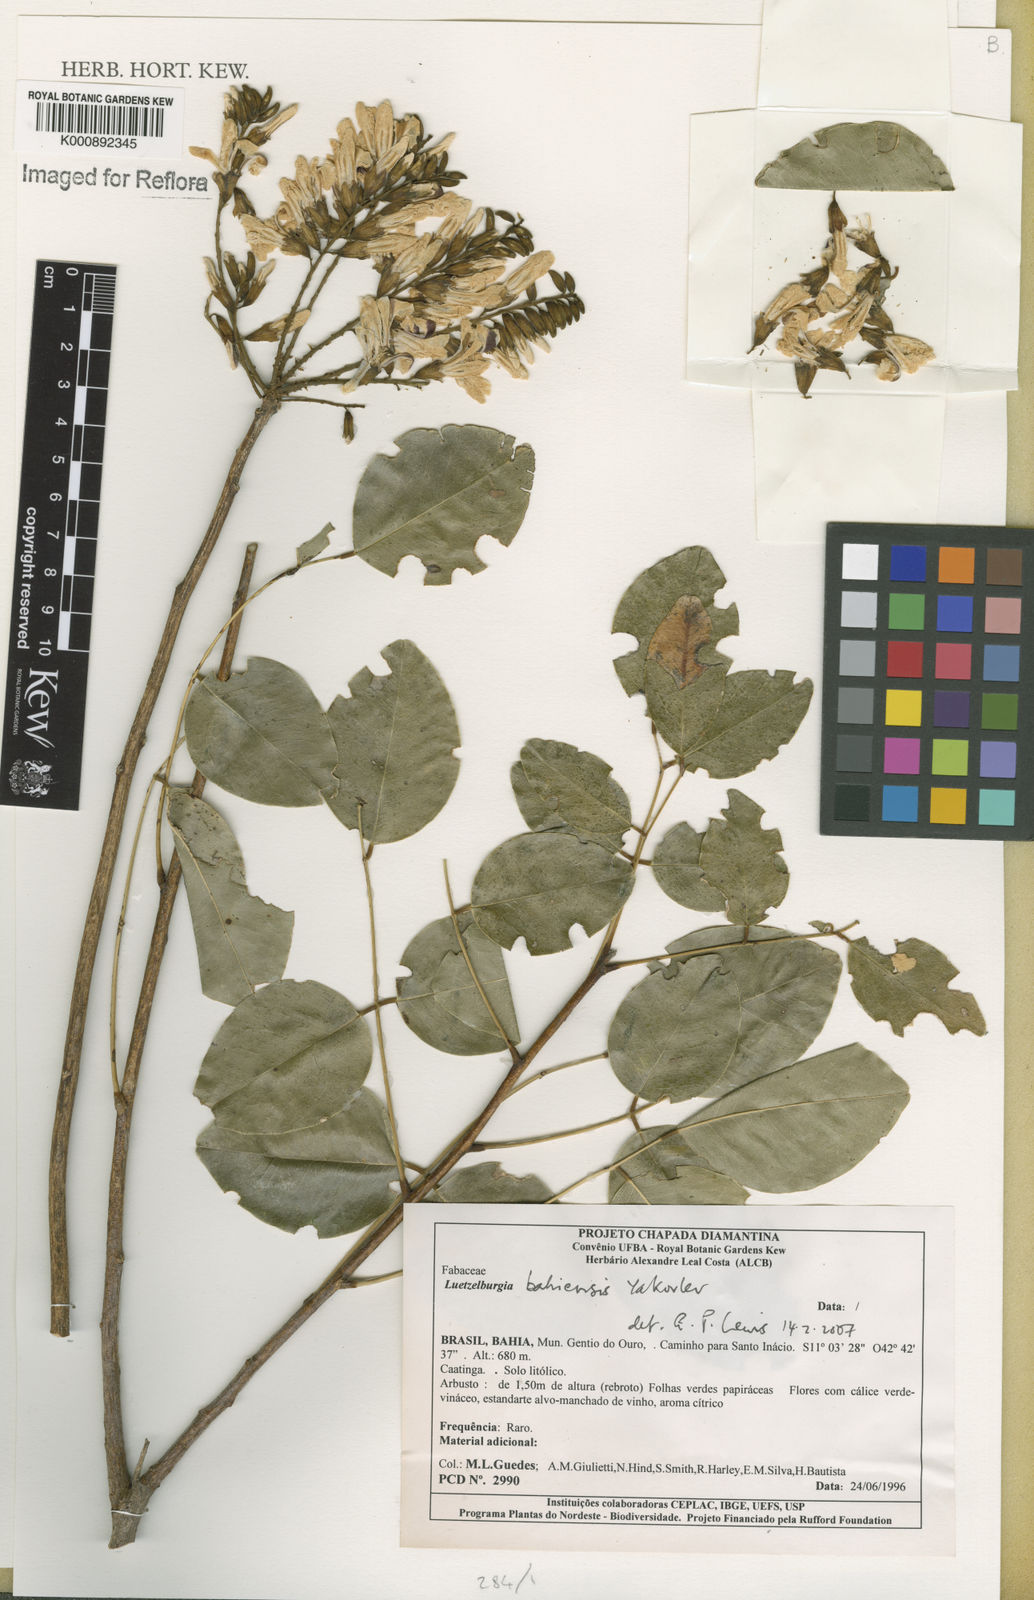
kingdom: Plantae
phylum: Tracheophyta
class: Magnoliopsida
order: Fabales
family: Fabaceae
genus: Luetzelburgia
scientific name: Luetzelburgia bahiensis
